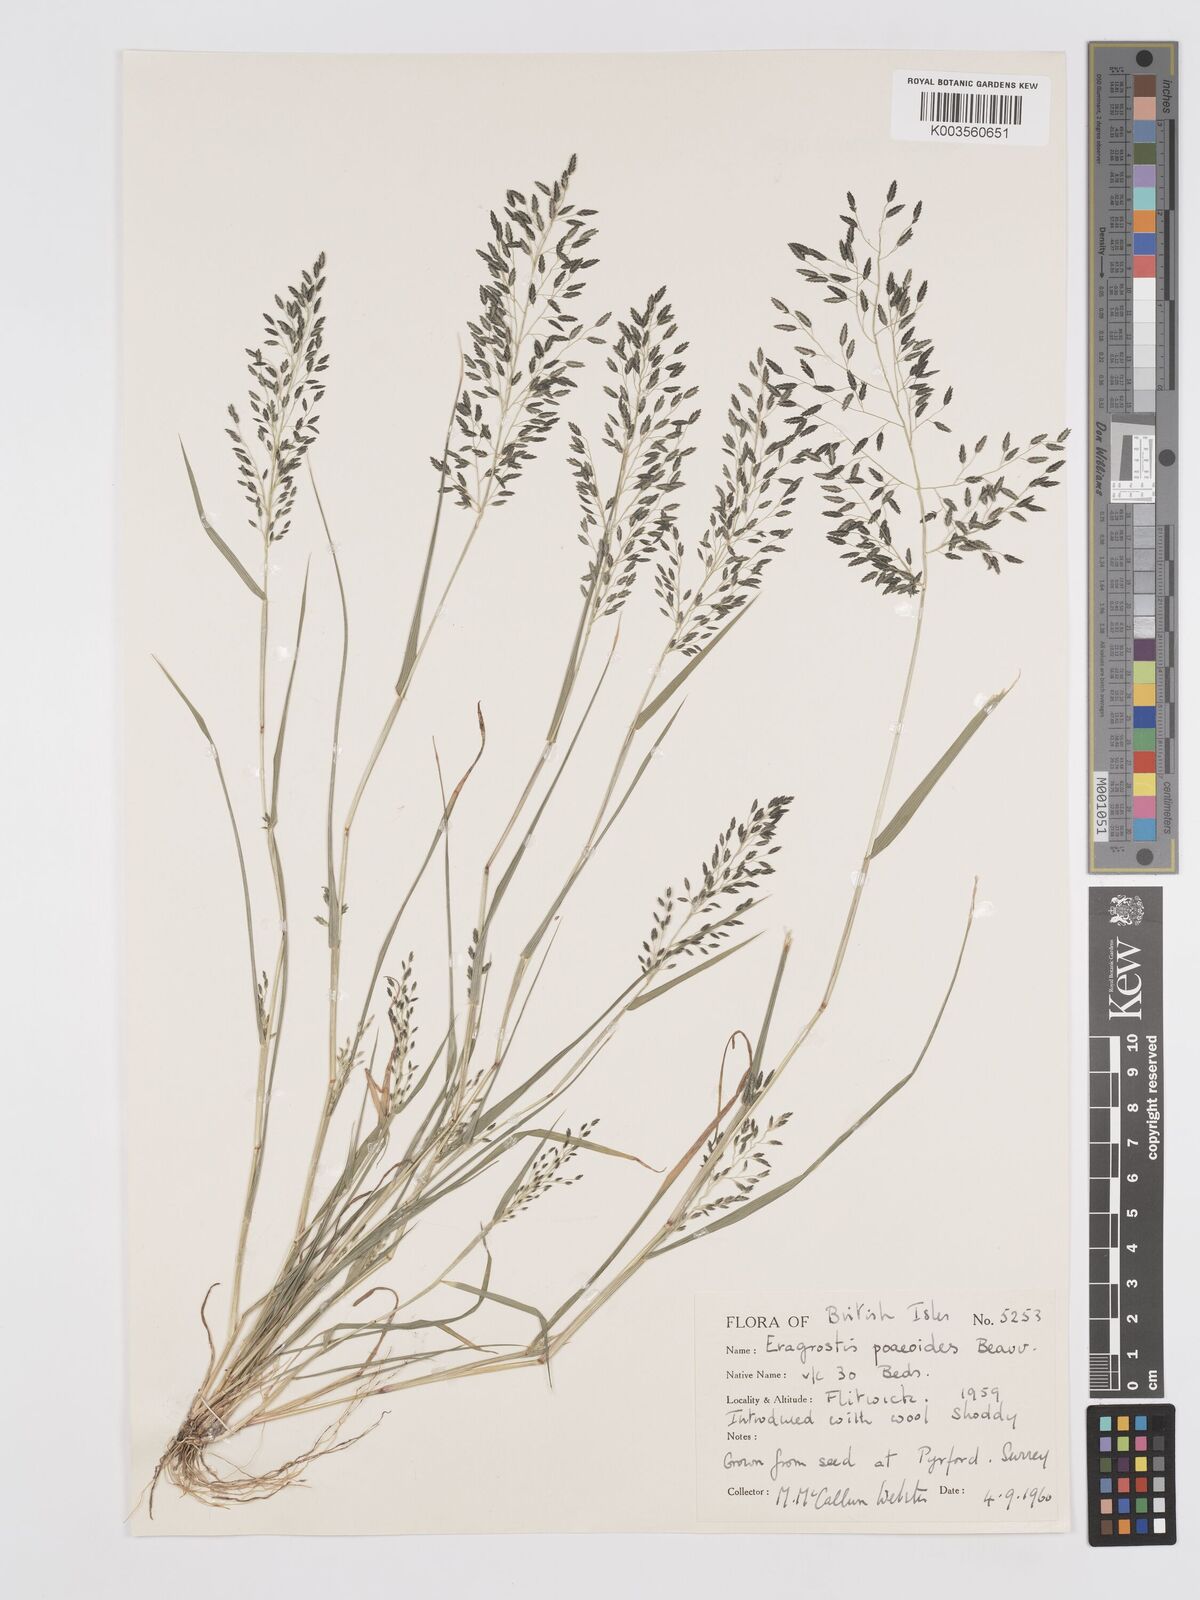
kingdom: Plantae
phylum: Tracheophyta
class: Liliopsida
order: Poales
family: Poaceae
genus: Eragrostis
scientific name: Eragrostis minor
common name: Small love-grass
